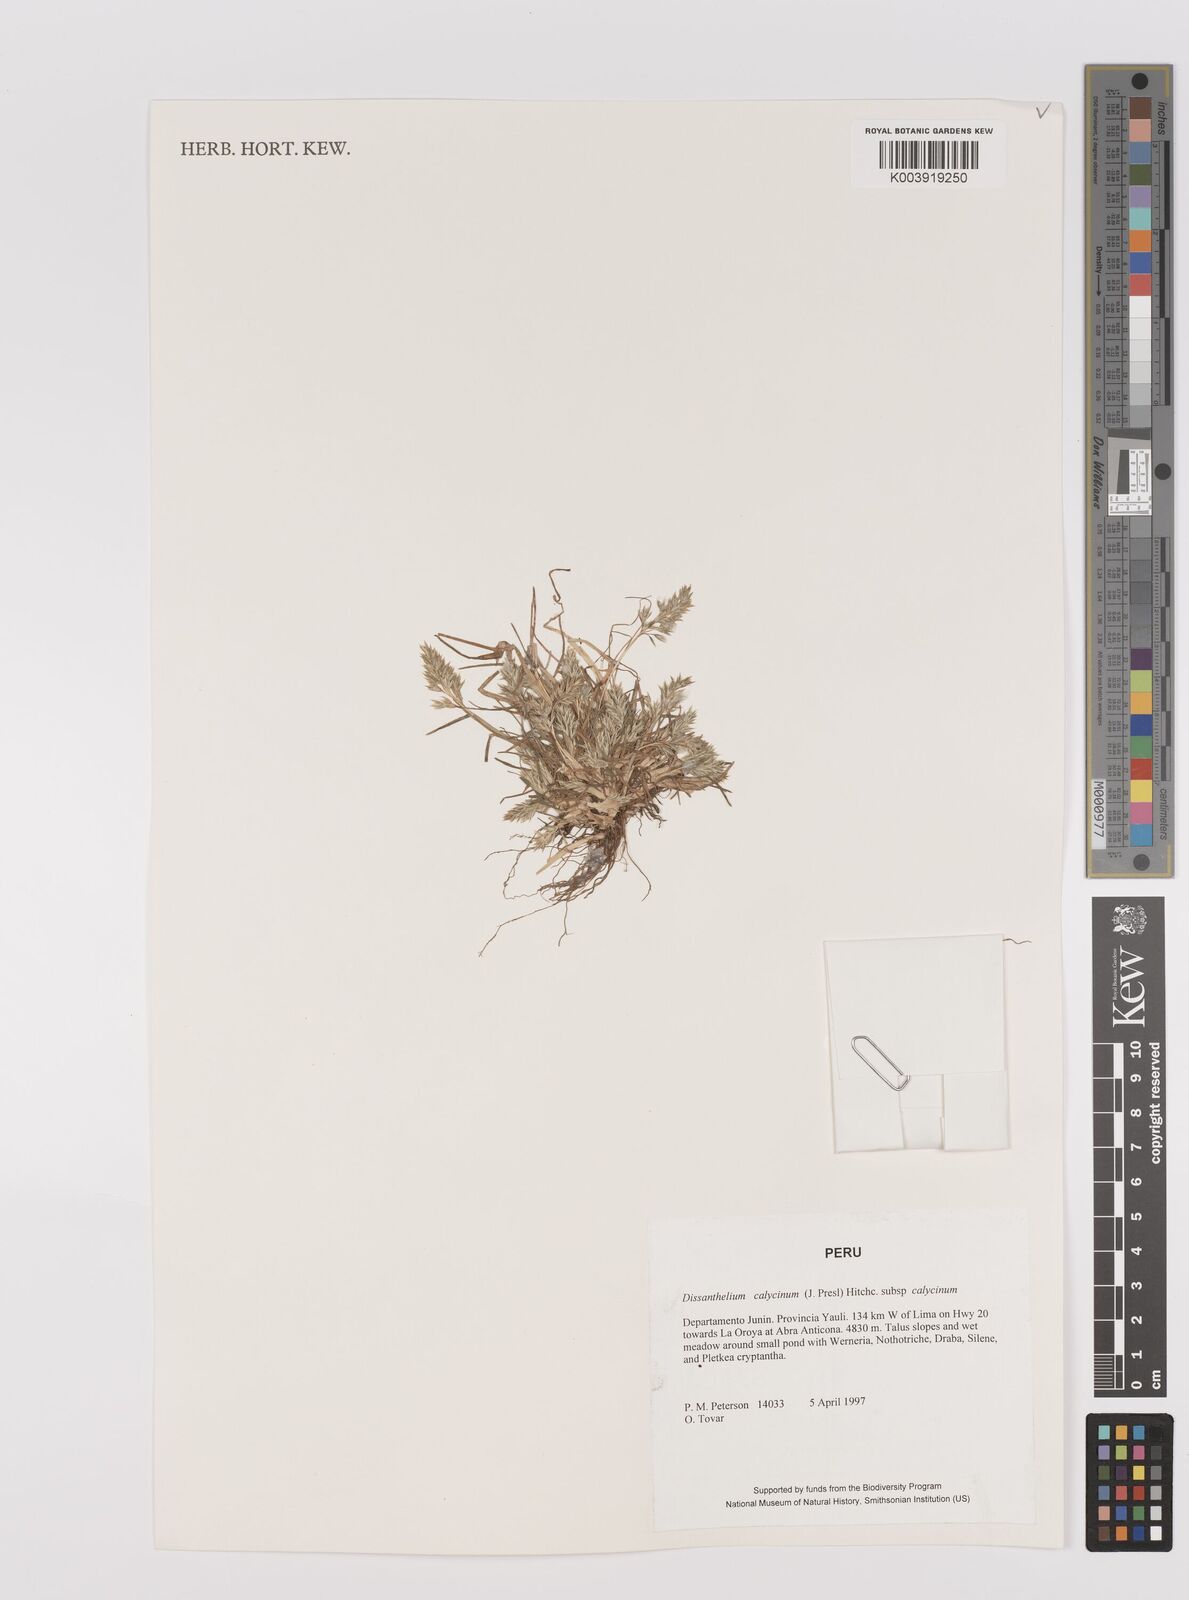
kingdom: Plantae
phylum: Tracheophyta
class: Liliopsida
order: Poales
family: Poaceae
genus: Poa
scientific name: Poa calycina
